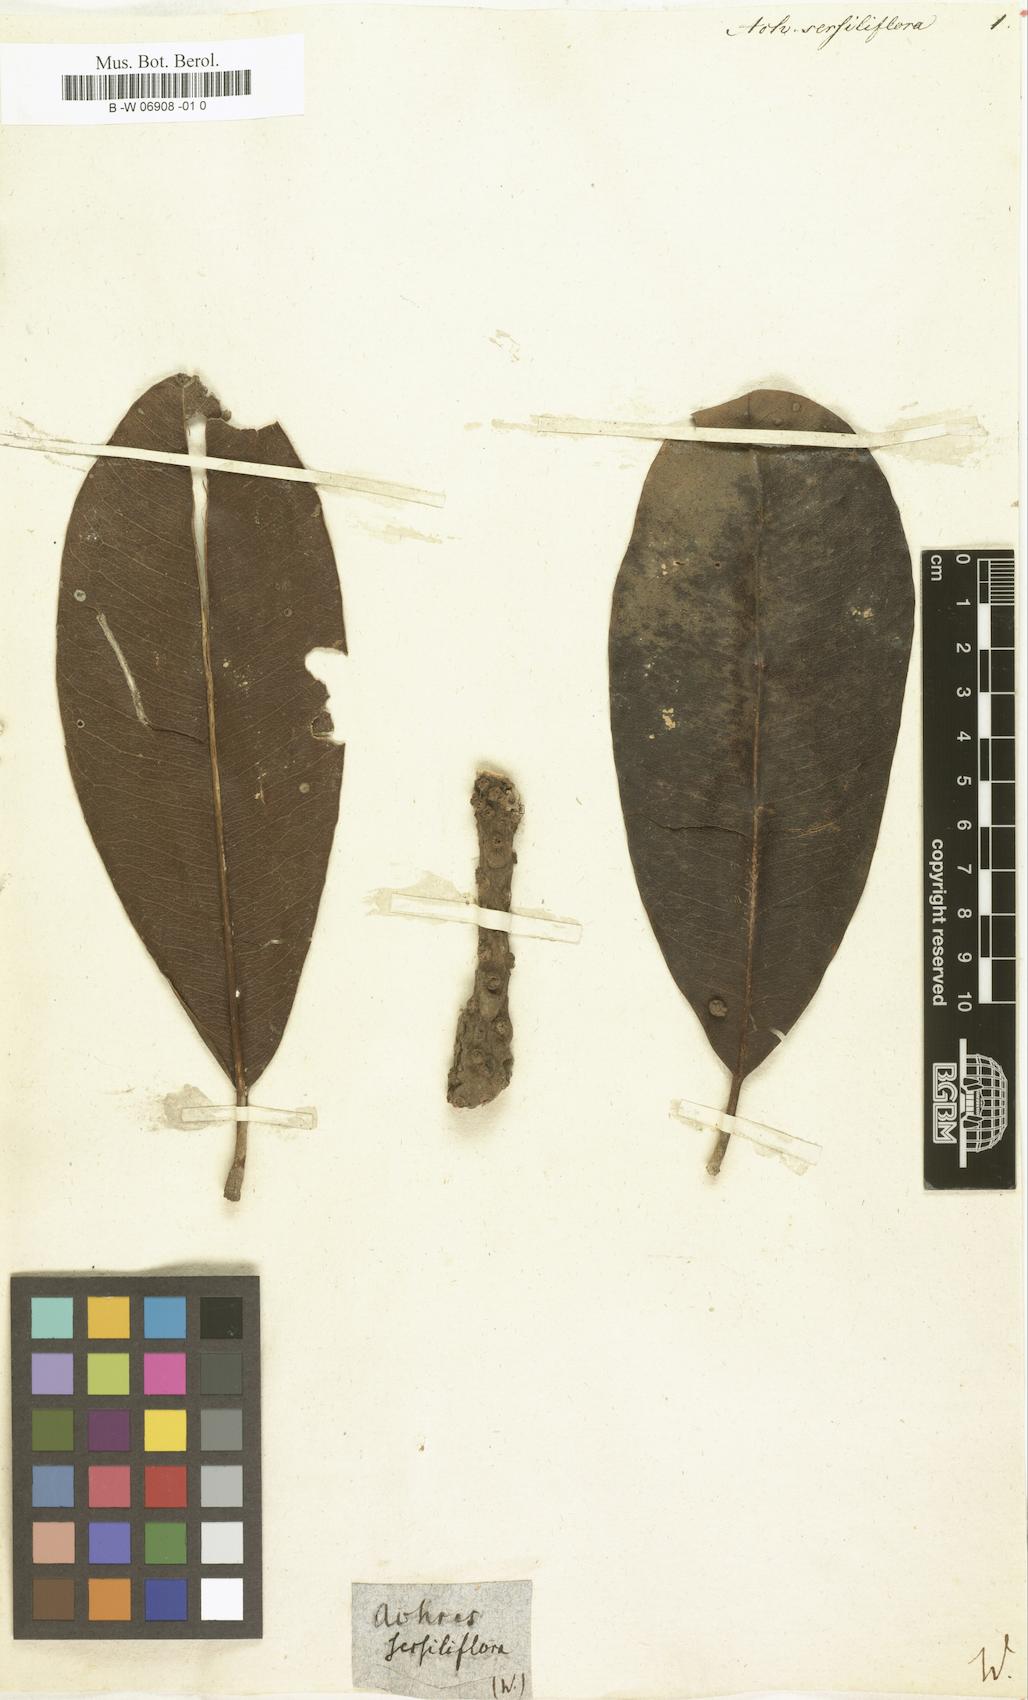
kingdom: Plantae
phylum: Tracheophyta
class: Magnoliopsida
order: Ericales
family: Sapotaceae
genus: Sideroxylon
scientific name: Sideroxylon sessiliflorum
